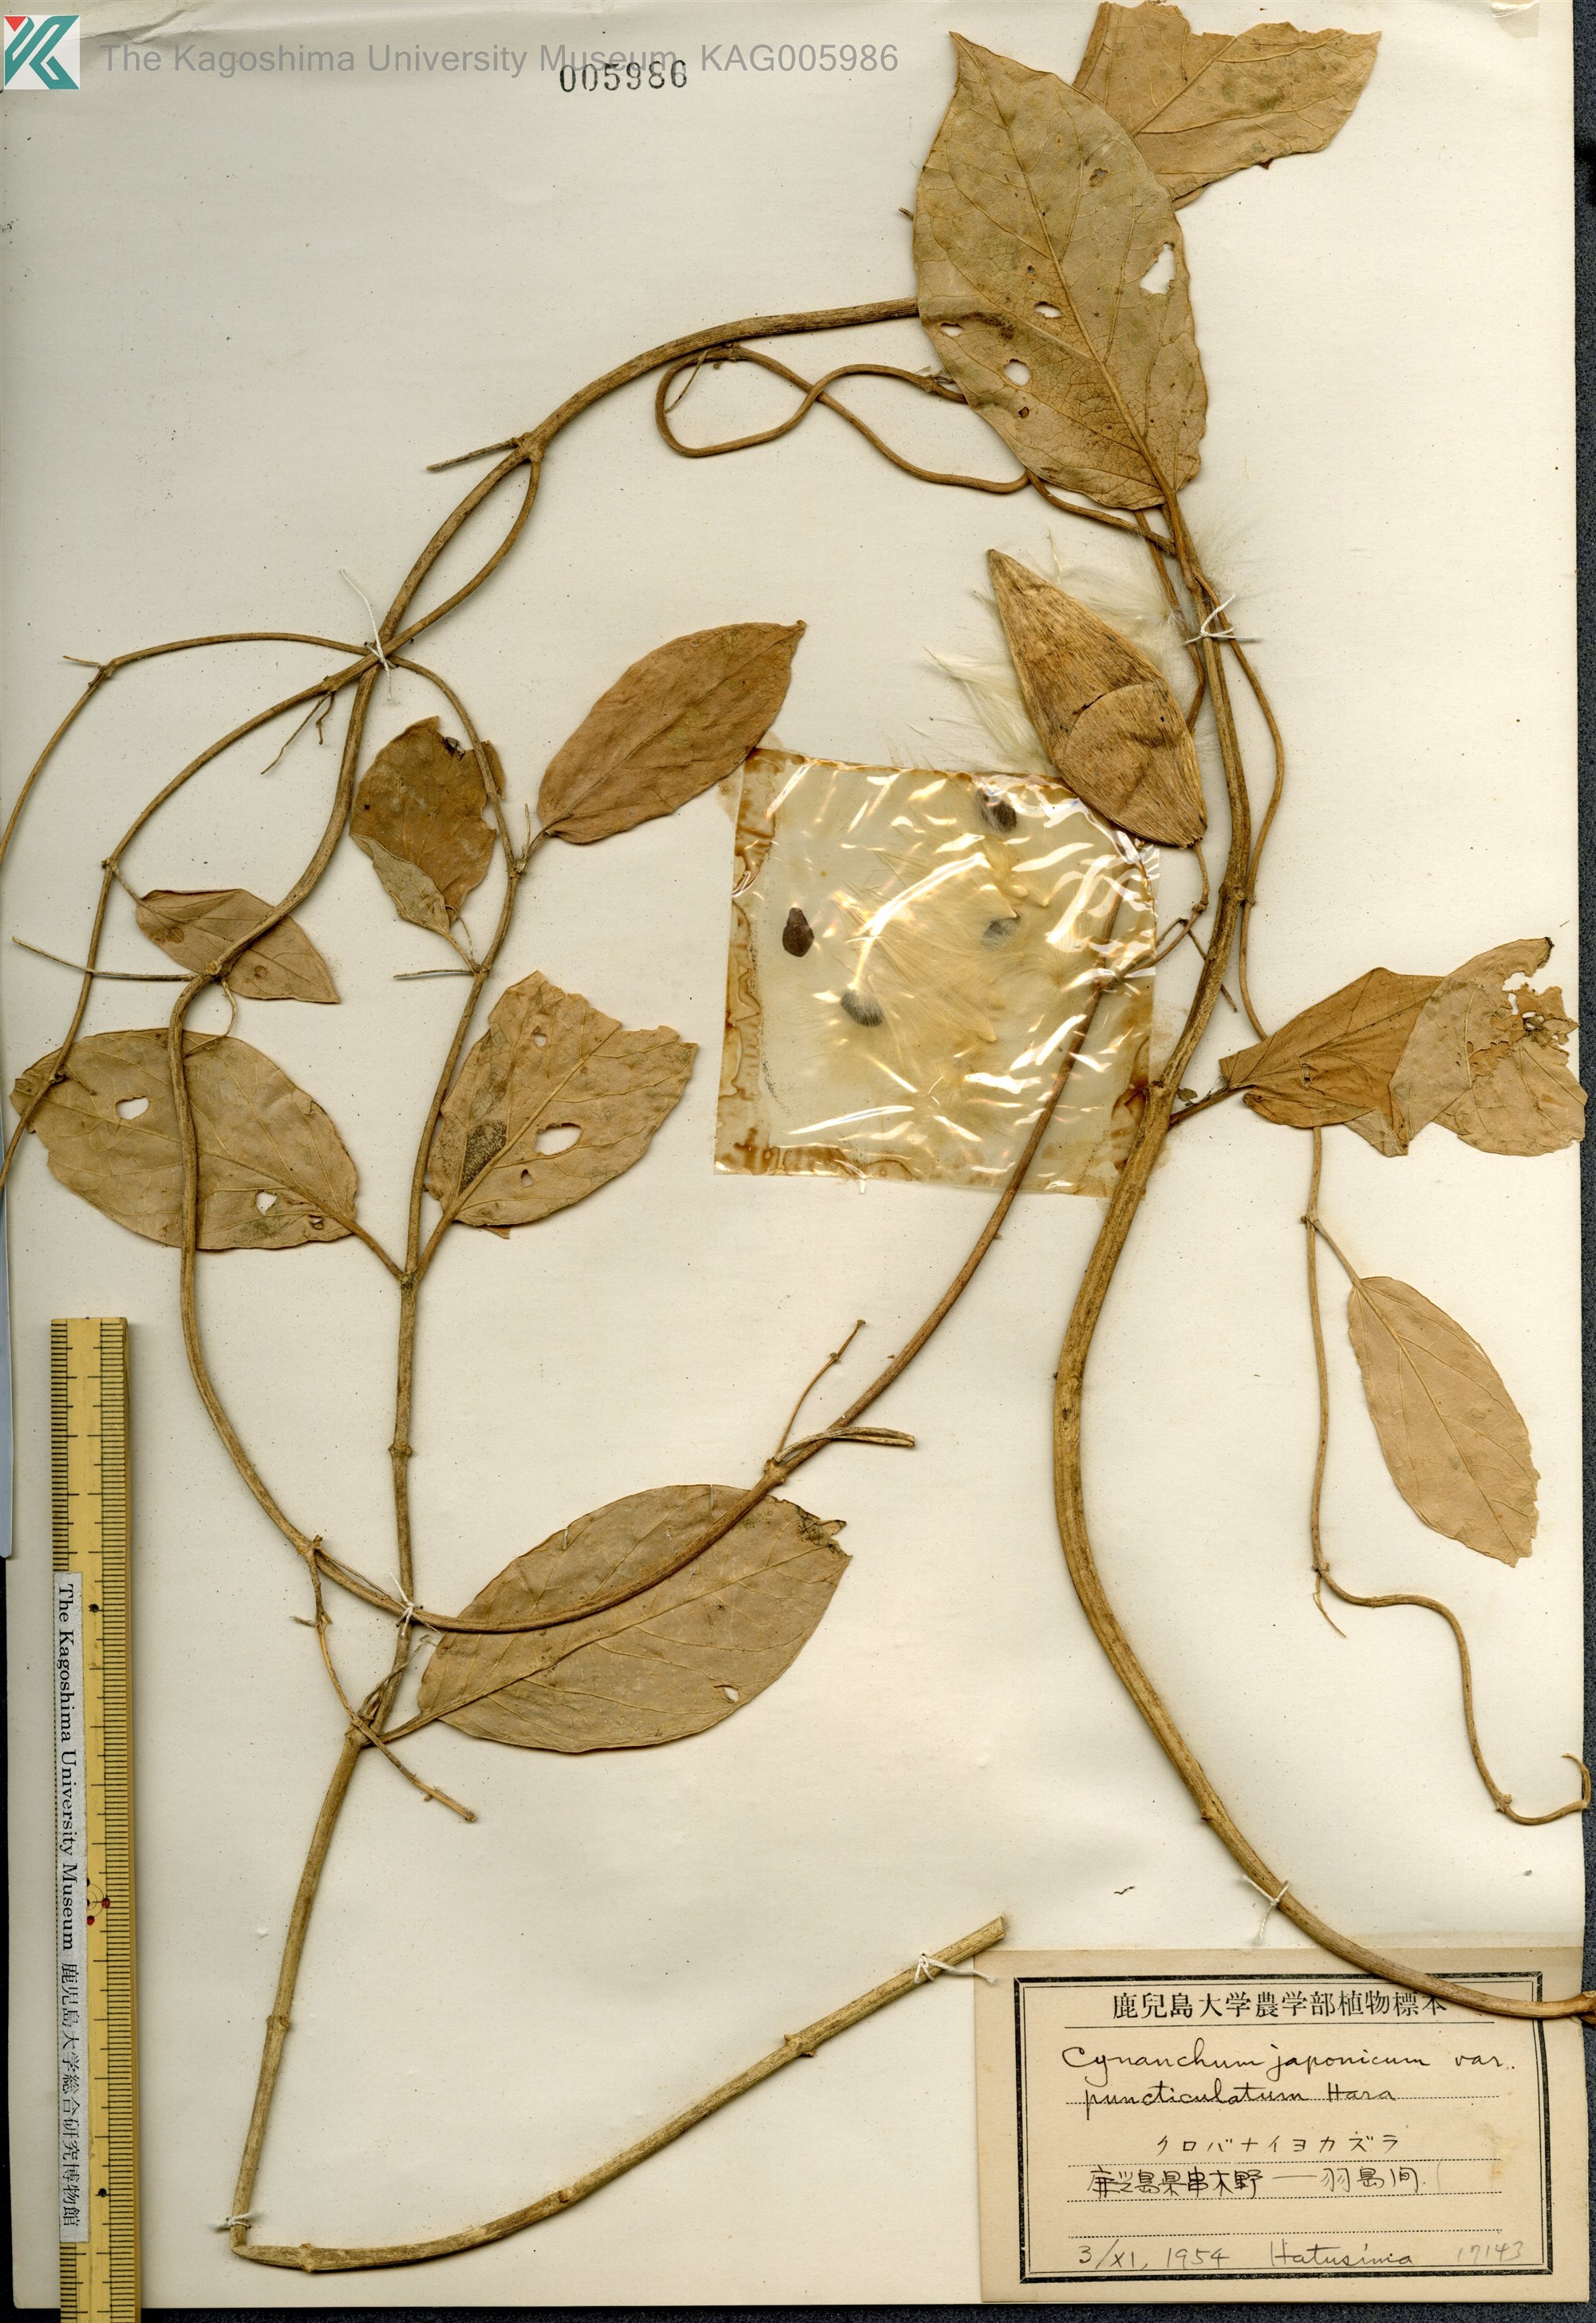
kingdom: Plantae
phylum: Tracheophyta
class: Magnoliopsida
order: Gentianales
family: Apocynaceae
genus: Vincetoxicum
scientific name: Vincetoxicum japonicum
